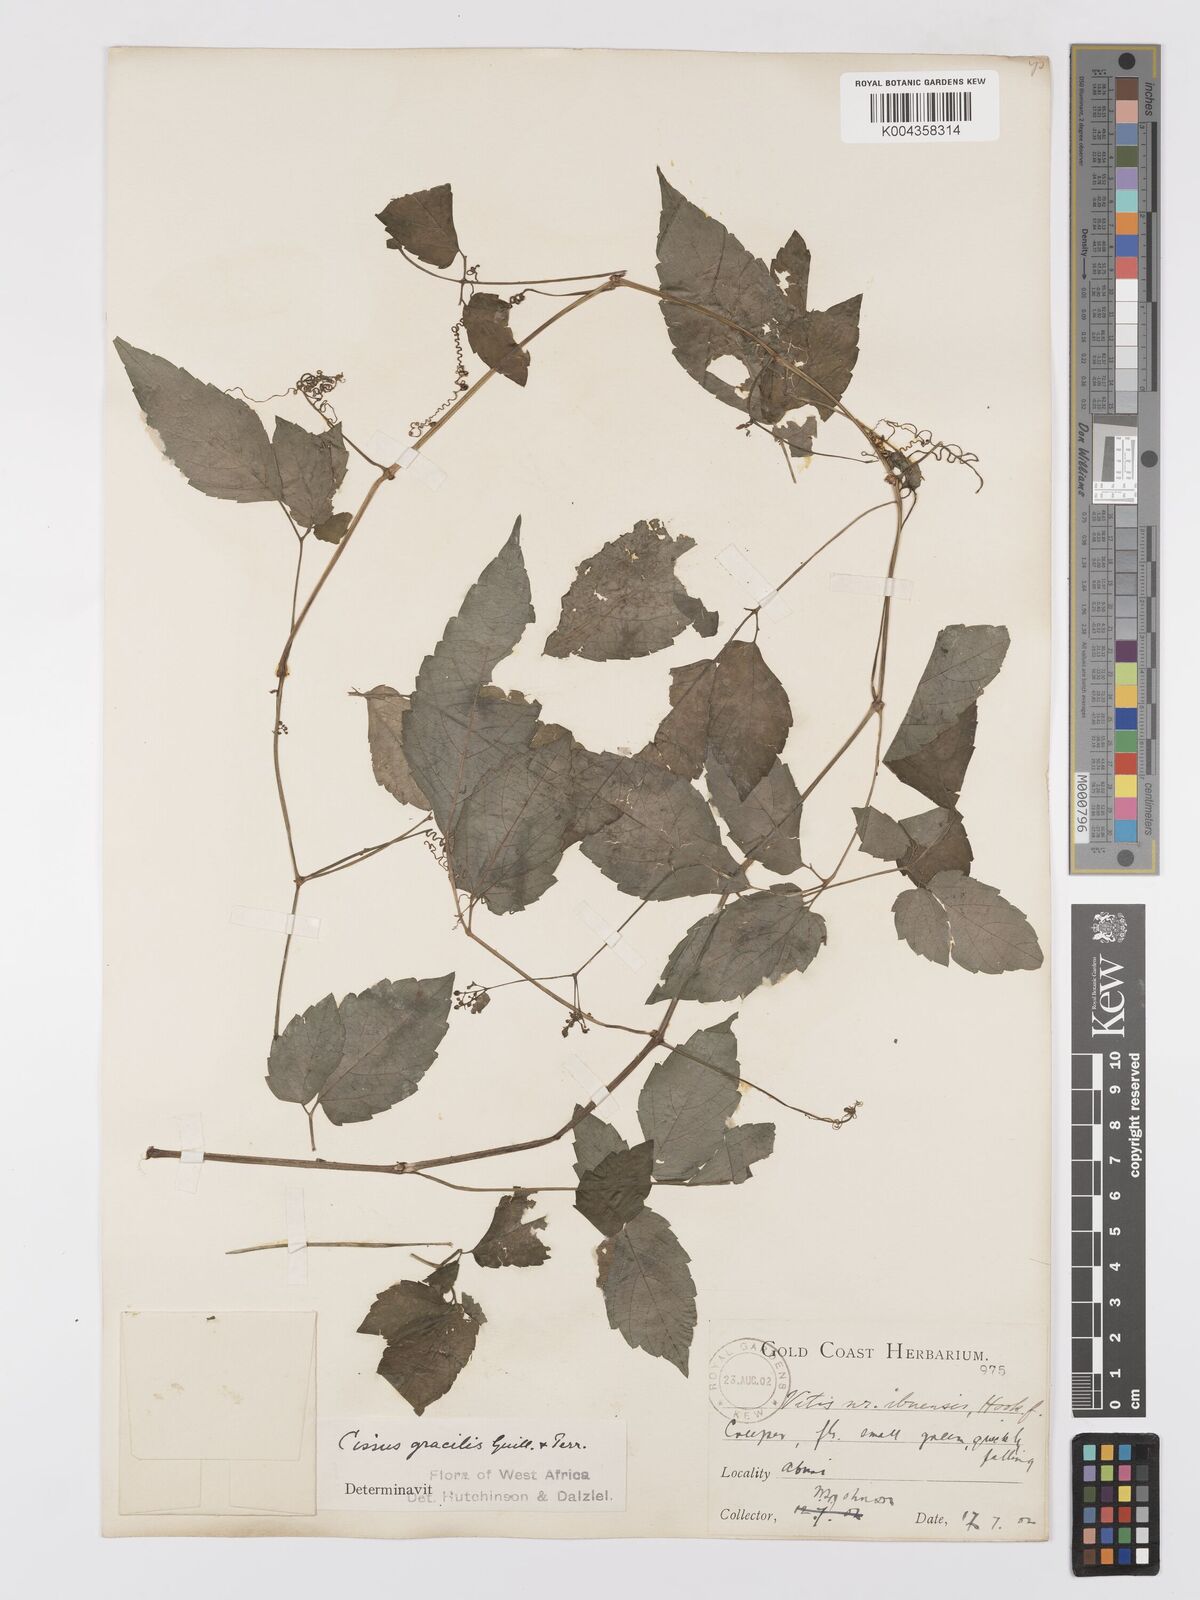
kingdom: Plantae
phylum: Tracheophyta
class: Magnoliopsida
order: Vitales
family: Vitaceae
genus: Afrocayratia
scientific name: Afrocayratia gracilis
